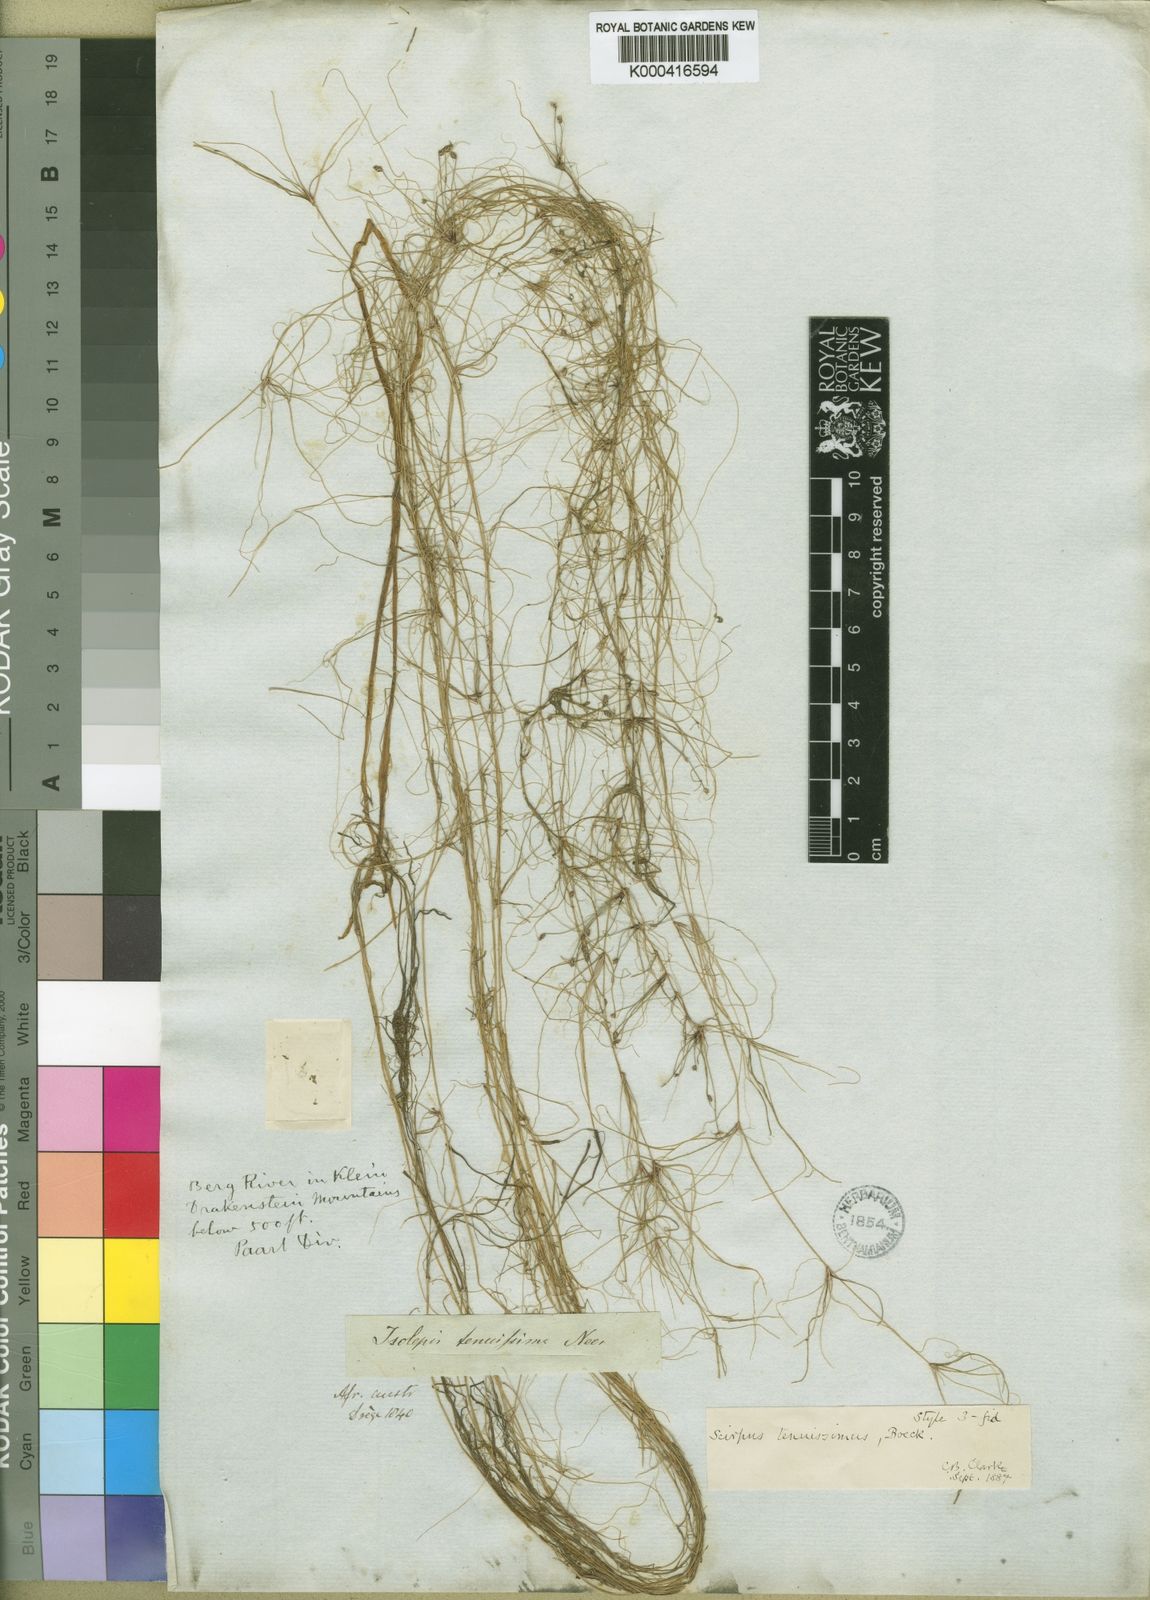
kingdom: Plantae
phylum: Tracheophyta
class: Liliopsida
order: Poales
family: Cyperaceae
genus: Isolepis
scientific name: Isolepis
